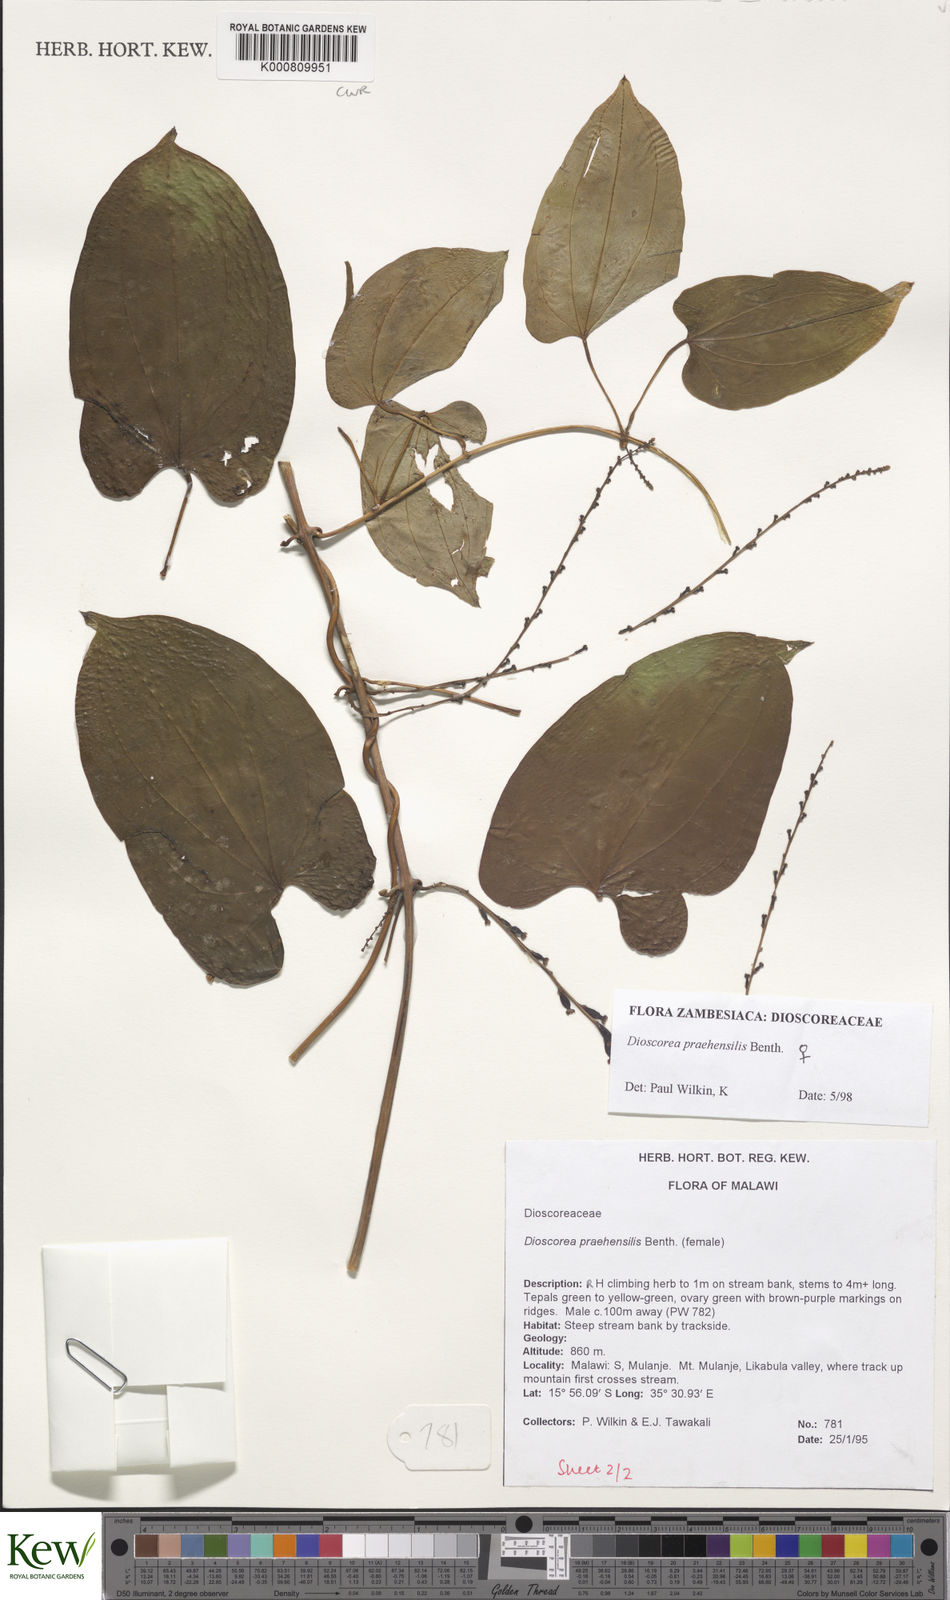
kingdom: Plantae
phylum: Tracheophyta
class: Liliopsida
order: Dioscoreales
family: Dioscoreaceae
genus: Dioscorea
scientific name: Dioscorea praehensilis
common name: Bush yam
